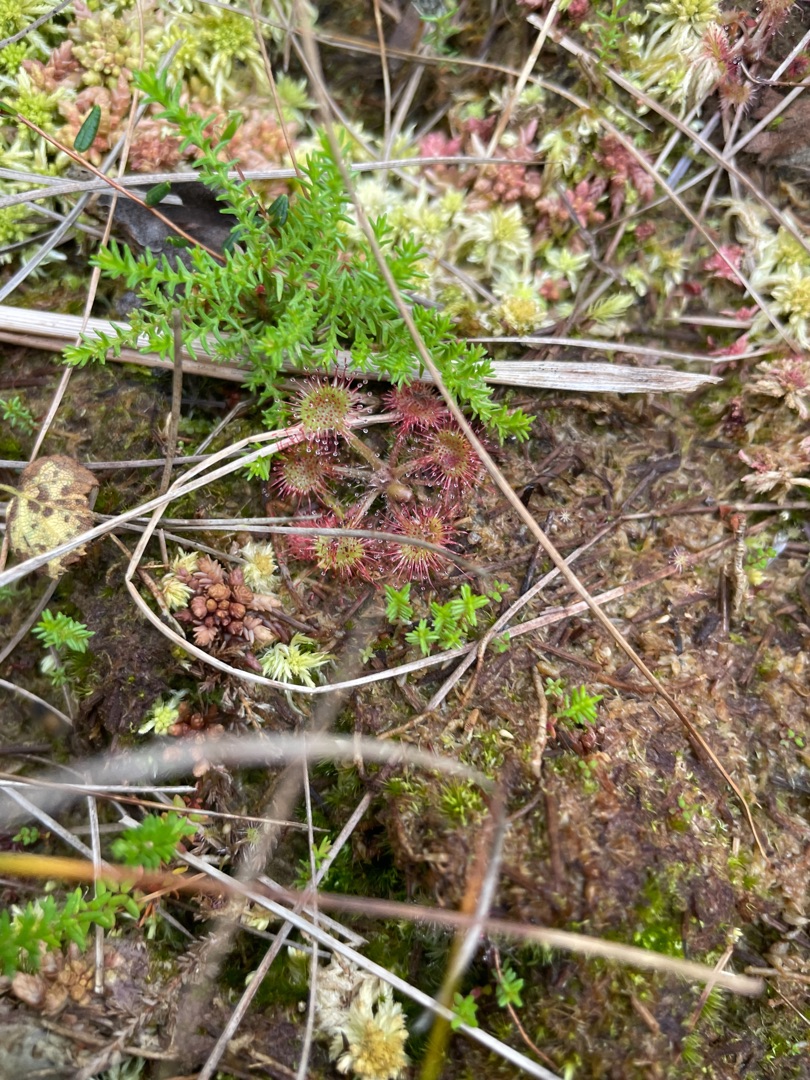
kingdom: Plantae
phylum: Tracheophyta
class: Magnoliopsida
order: Caryophyllales
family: Droseraceae
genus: Drosera
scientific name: Drosera rotundifolia
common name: Rundbladet soldug
